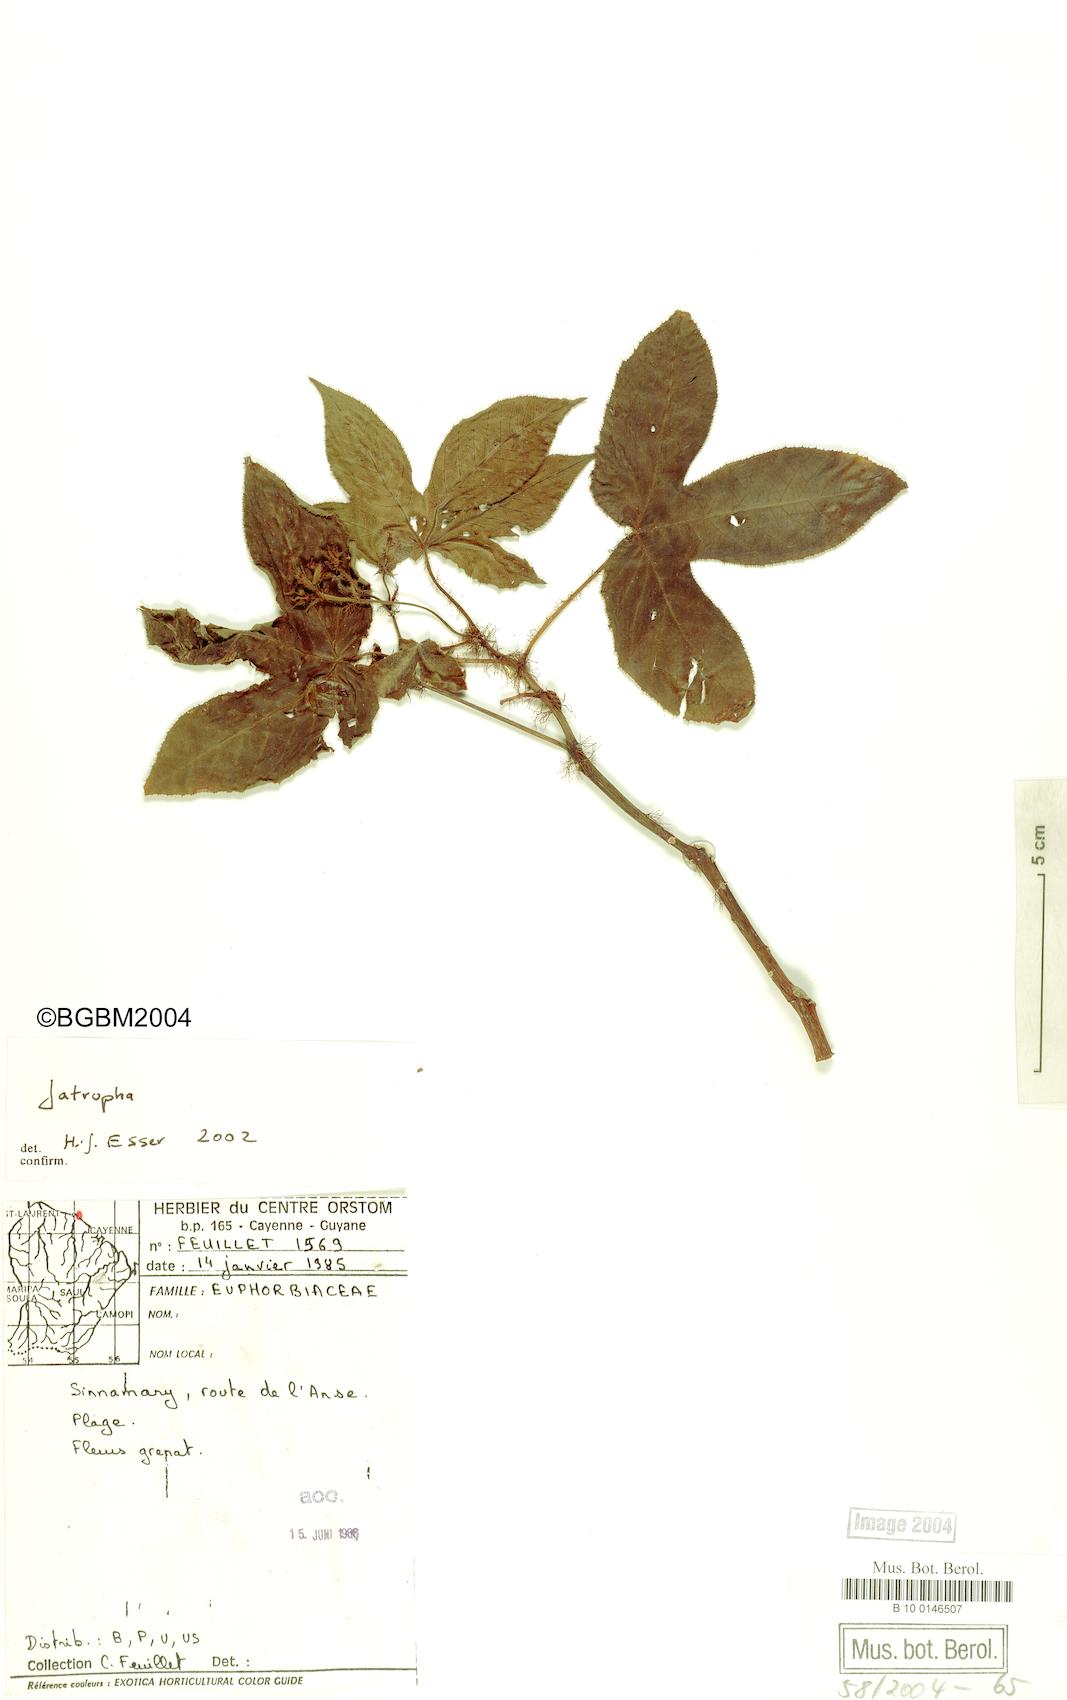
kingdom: Plantae
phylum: Tracheophyta
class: Magnoliopsida
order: Malpighiales
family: Euphorbiaceae
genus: Jatropha
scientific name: Jatropha
